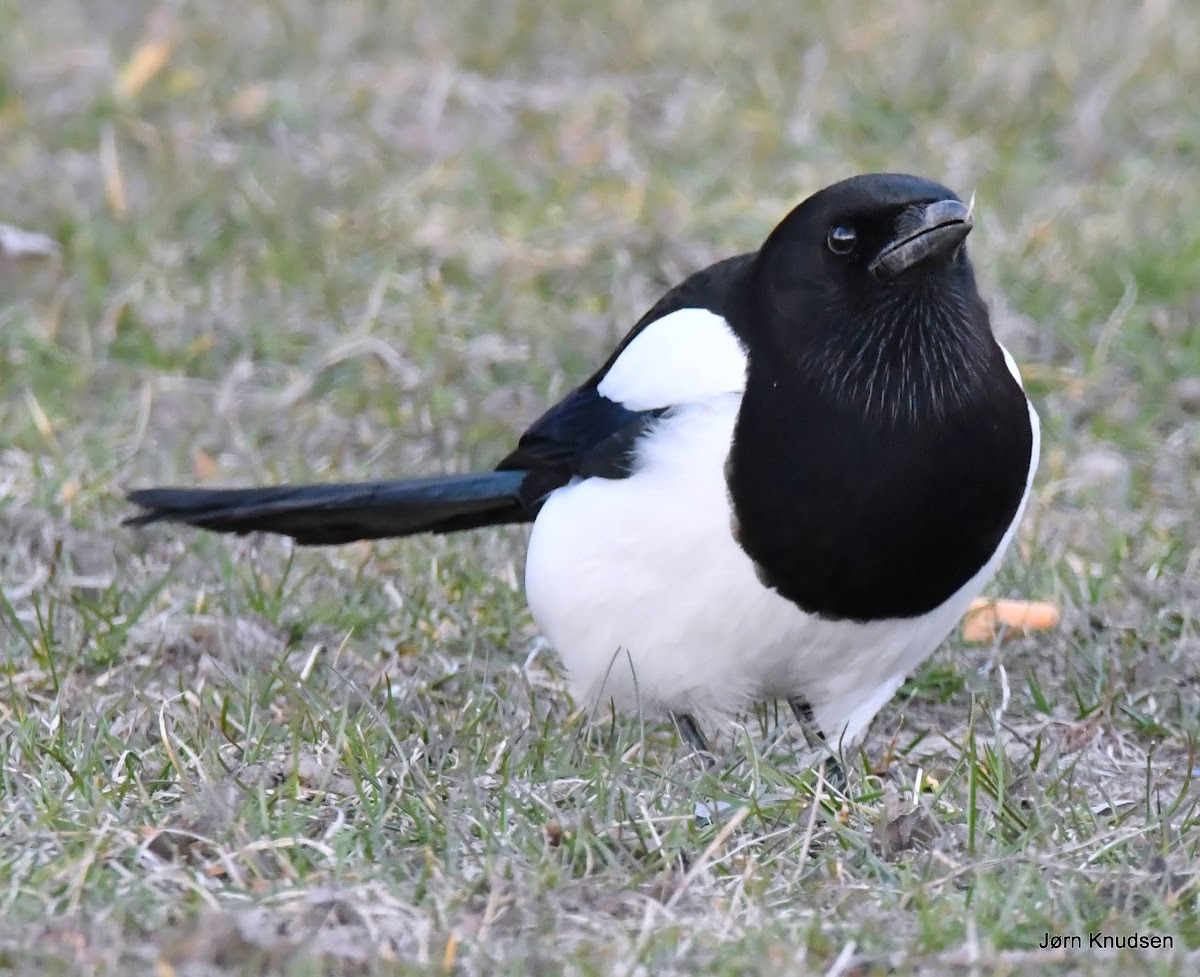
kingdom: Animalia
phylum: Chordata
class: Aves
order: Passeriformes
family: Corvidae
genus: Pica
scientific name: Pica pica
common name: Husskade
